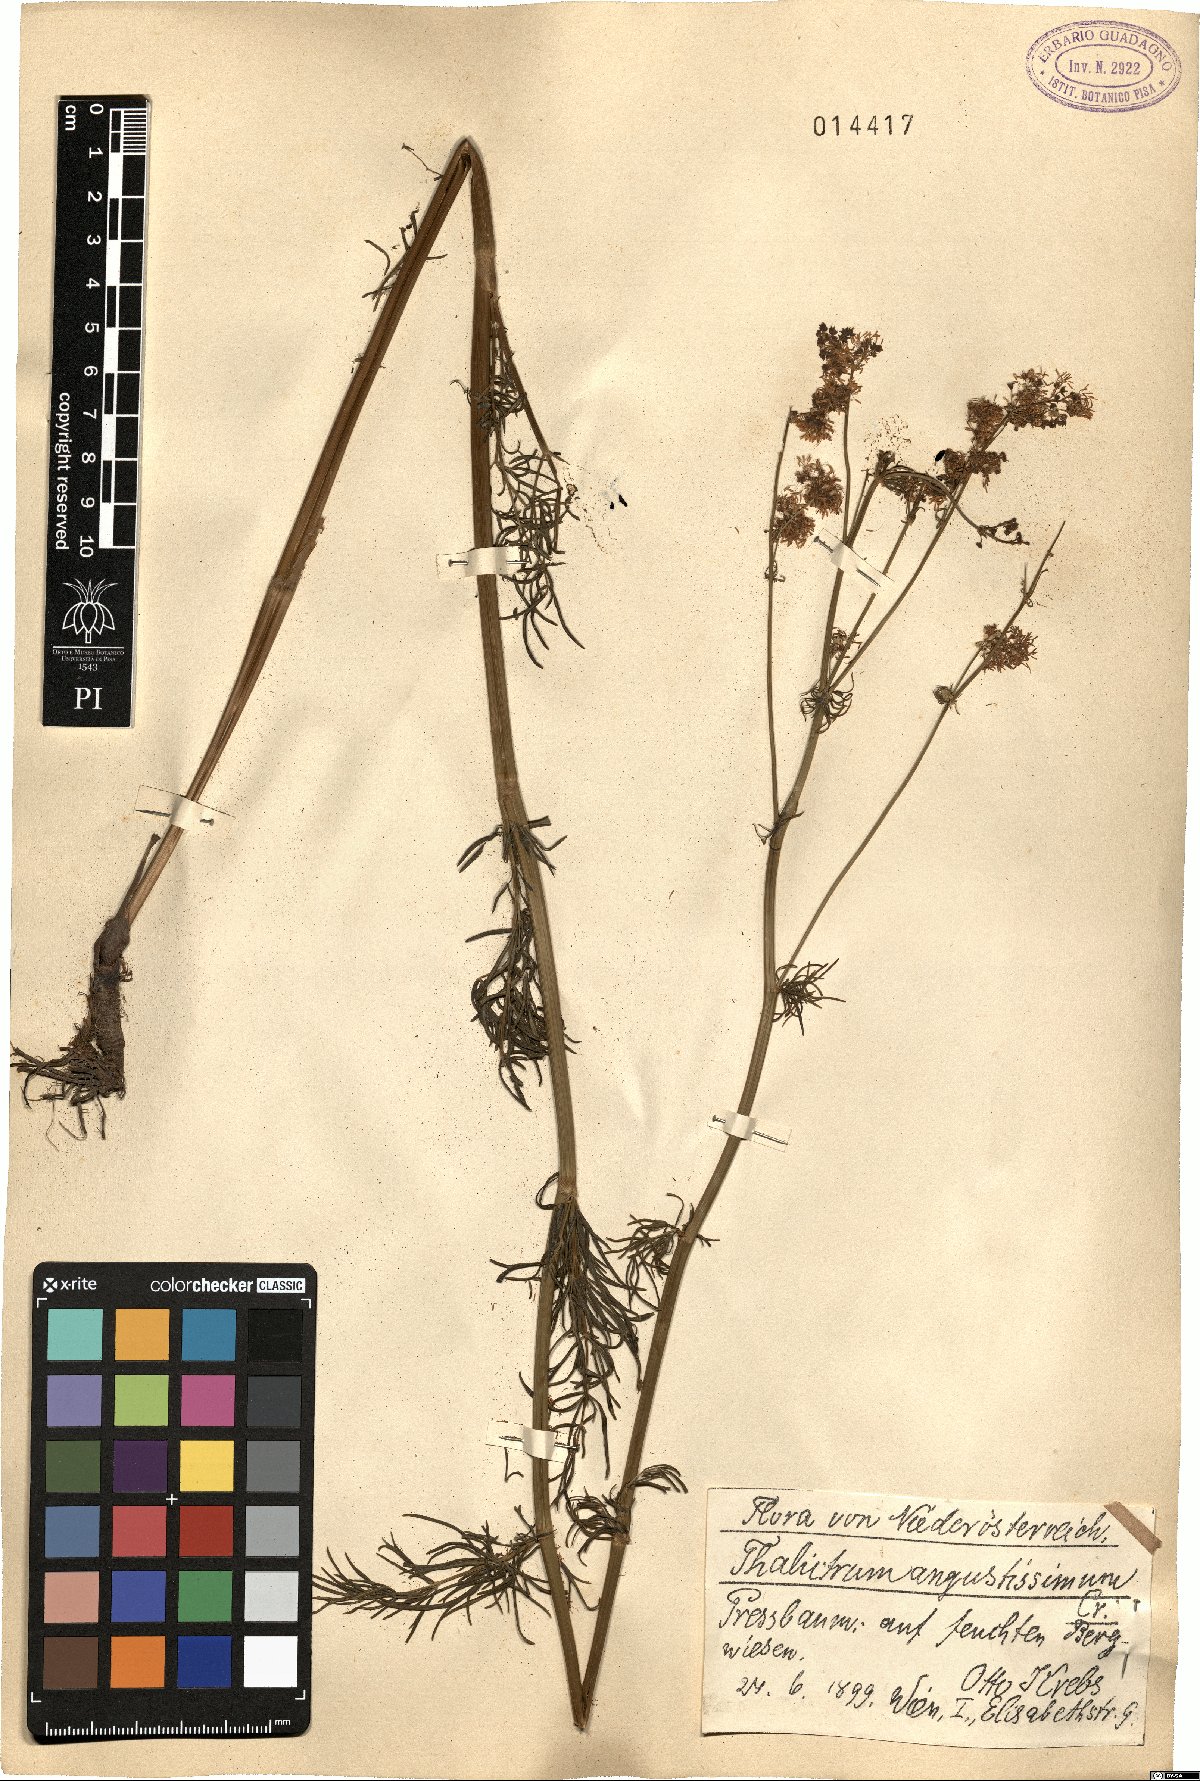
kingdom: Plantae
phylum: Tracheophyta
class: Magnoliopsida
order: Ranunculales
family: Ranunculaceae
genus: Thalictrum
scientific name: Thalictrum lucidum
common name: Shining meadow-rue
